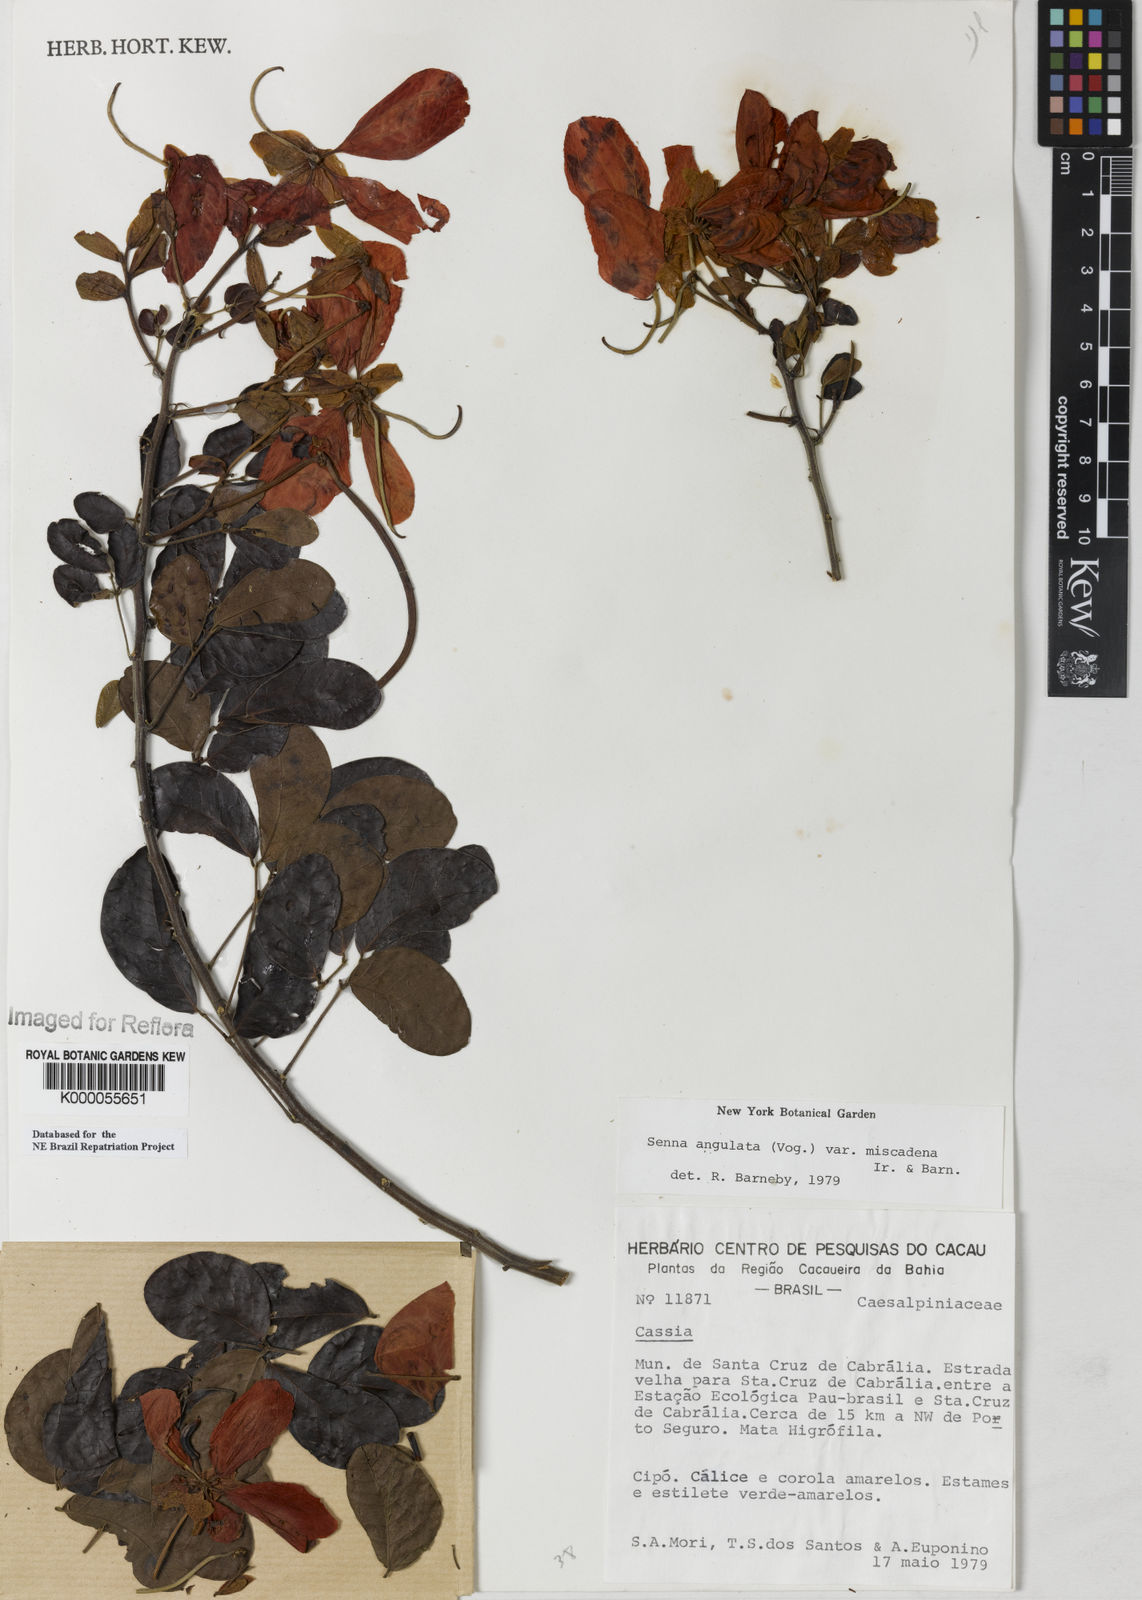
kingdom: Plantae
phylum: Tracheophyta
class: Magnoliopsida
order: Fabales
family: Fabaceae
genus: Senna
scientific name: Senna angulata
